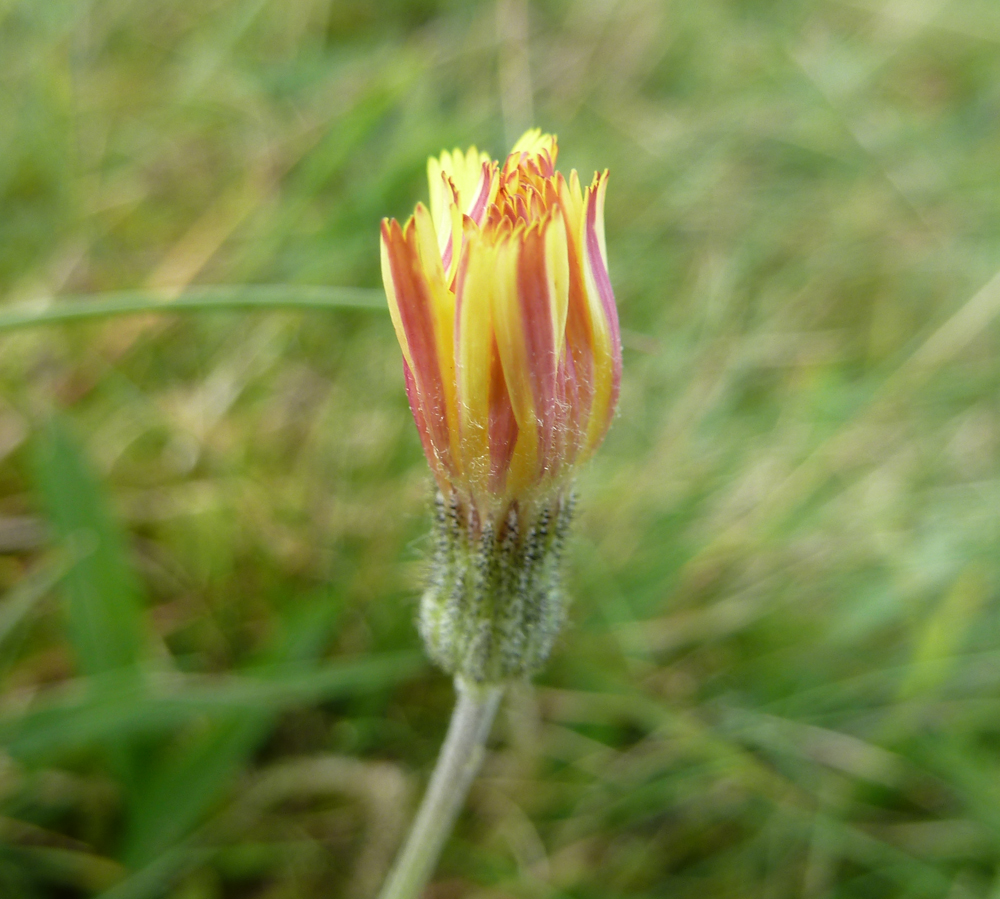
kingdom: Plantae
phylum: Tracheophyta
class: Magnoliopsida
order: Asterales
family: Asteraceae
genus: Pilosella
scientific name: Pilosella officinarum
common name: Mouse-ear hawkweed
